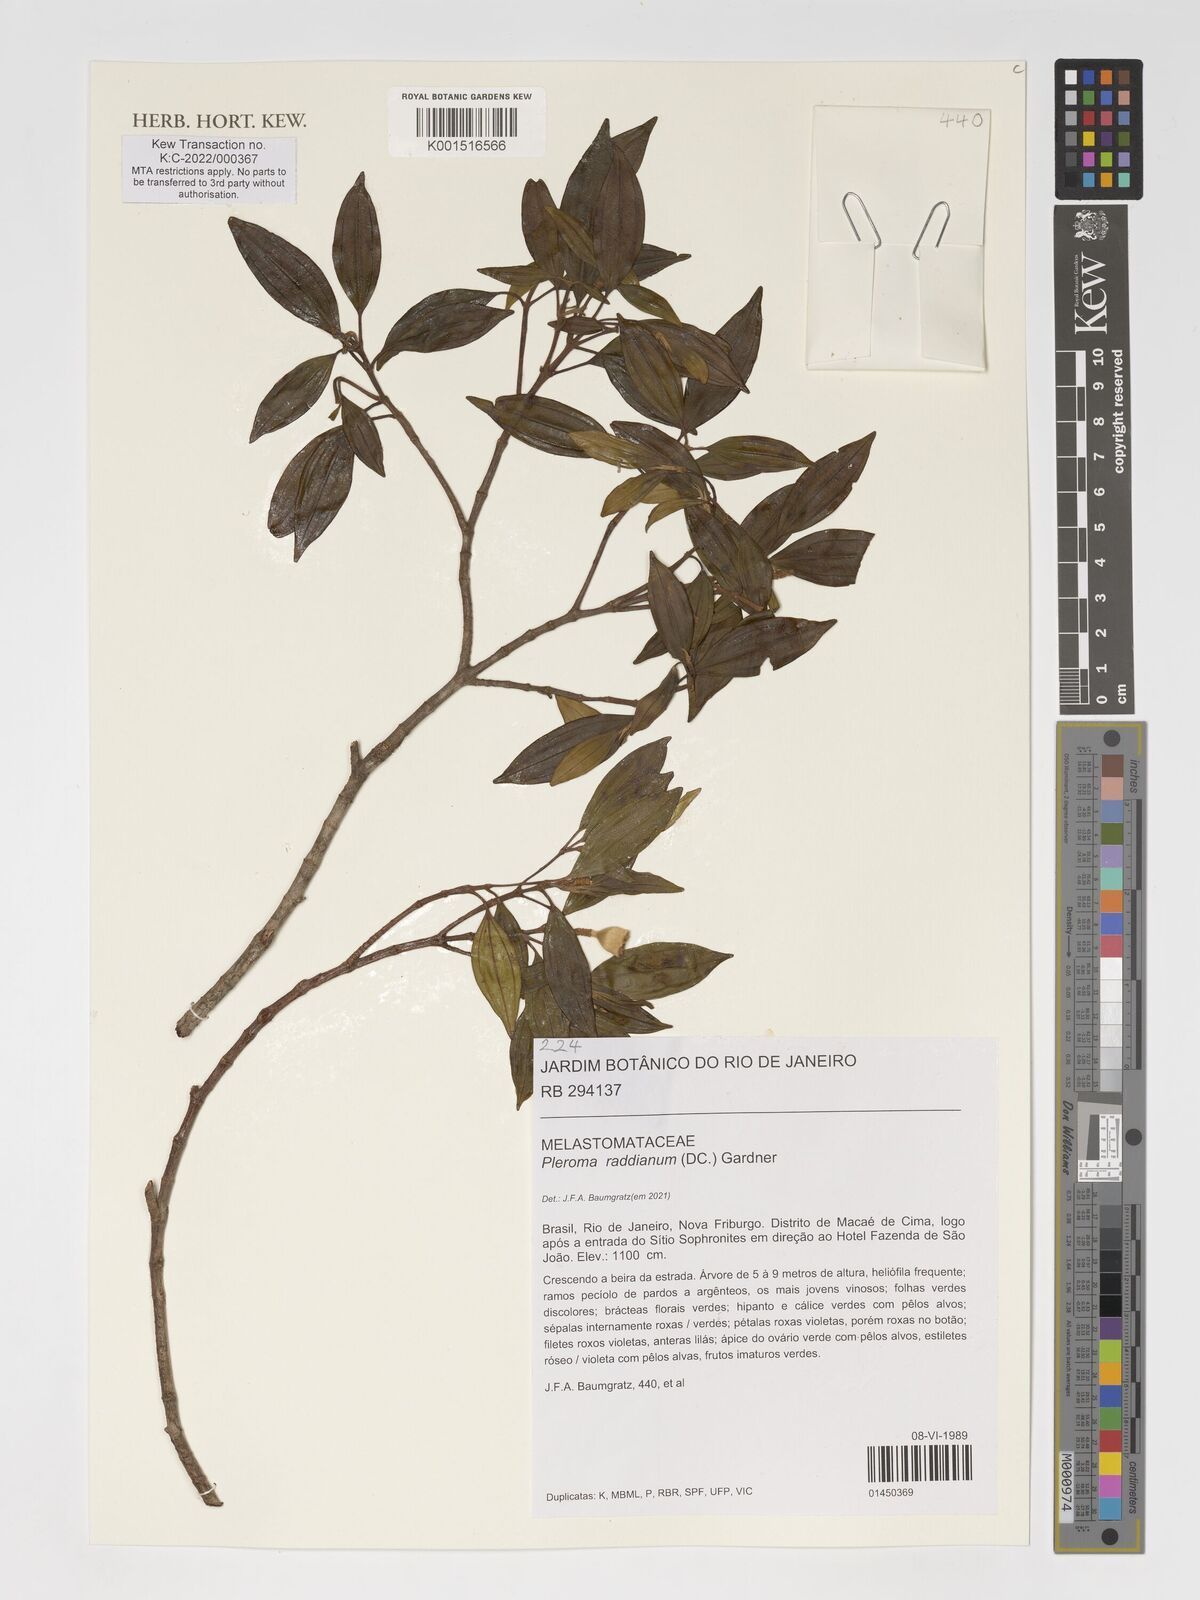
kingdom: Plantae
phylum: Tracheophyta
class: Magnoliopsida
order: Myrtales
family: Melastomataceae
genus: Pleroma
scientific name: Pleroma raddianum
